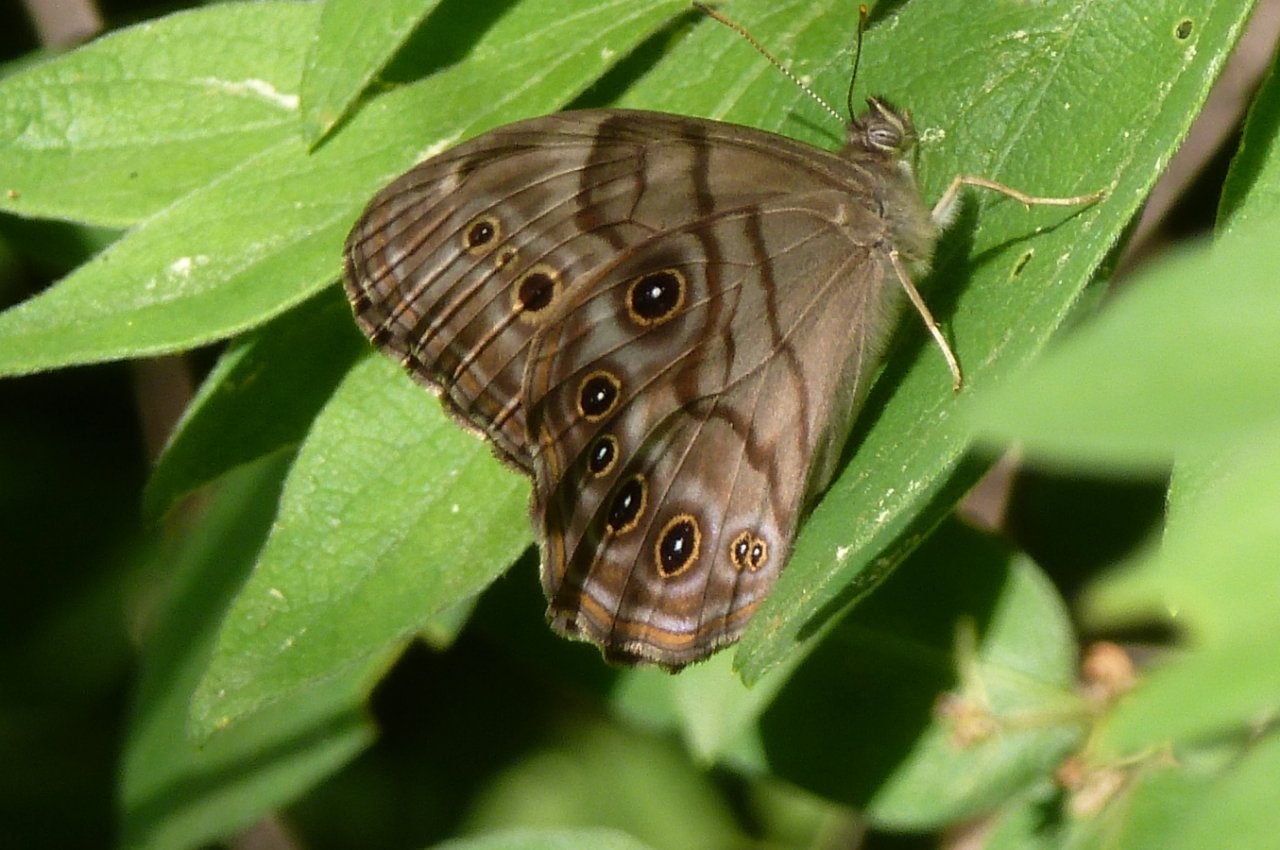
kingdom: Animalia
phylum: Arthropoda
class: Insecta
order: Lepidoptera
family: Nymphalidae
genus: Lethe
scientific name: Lethe anthedon
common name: Northern Pearly-Eye
